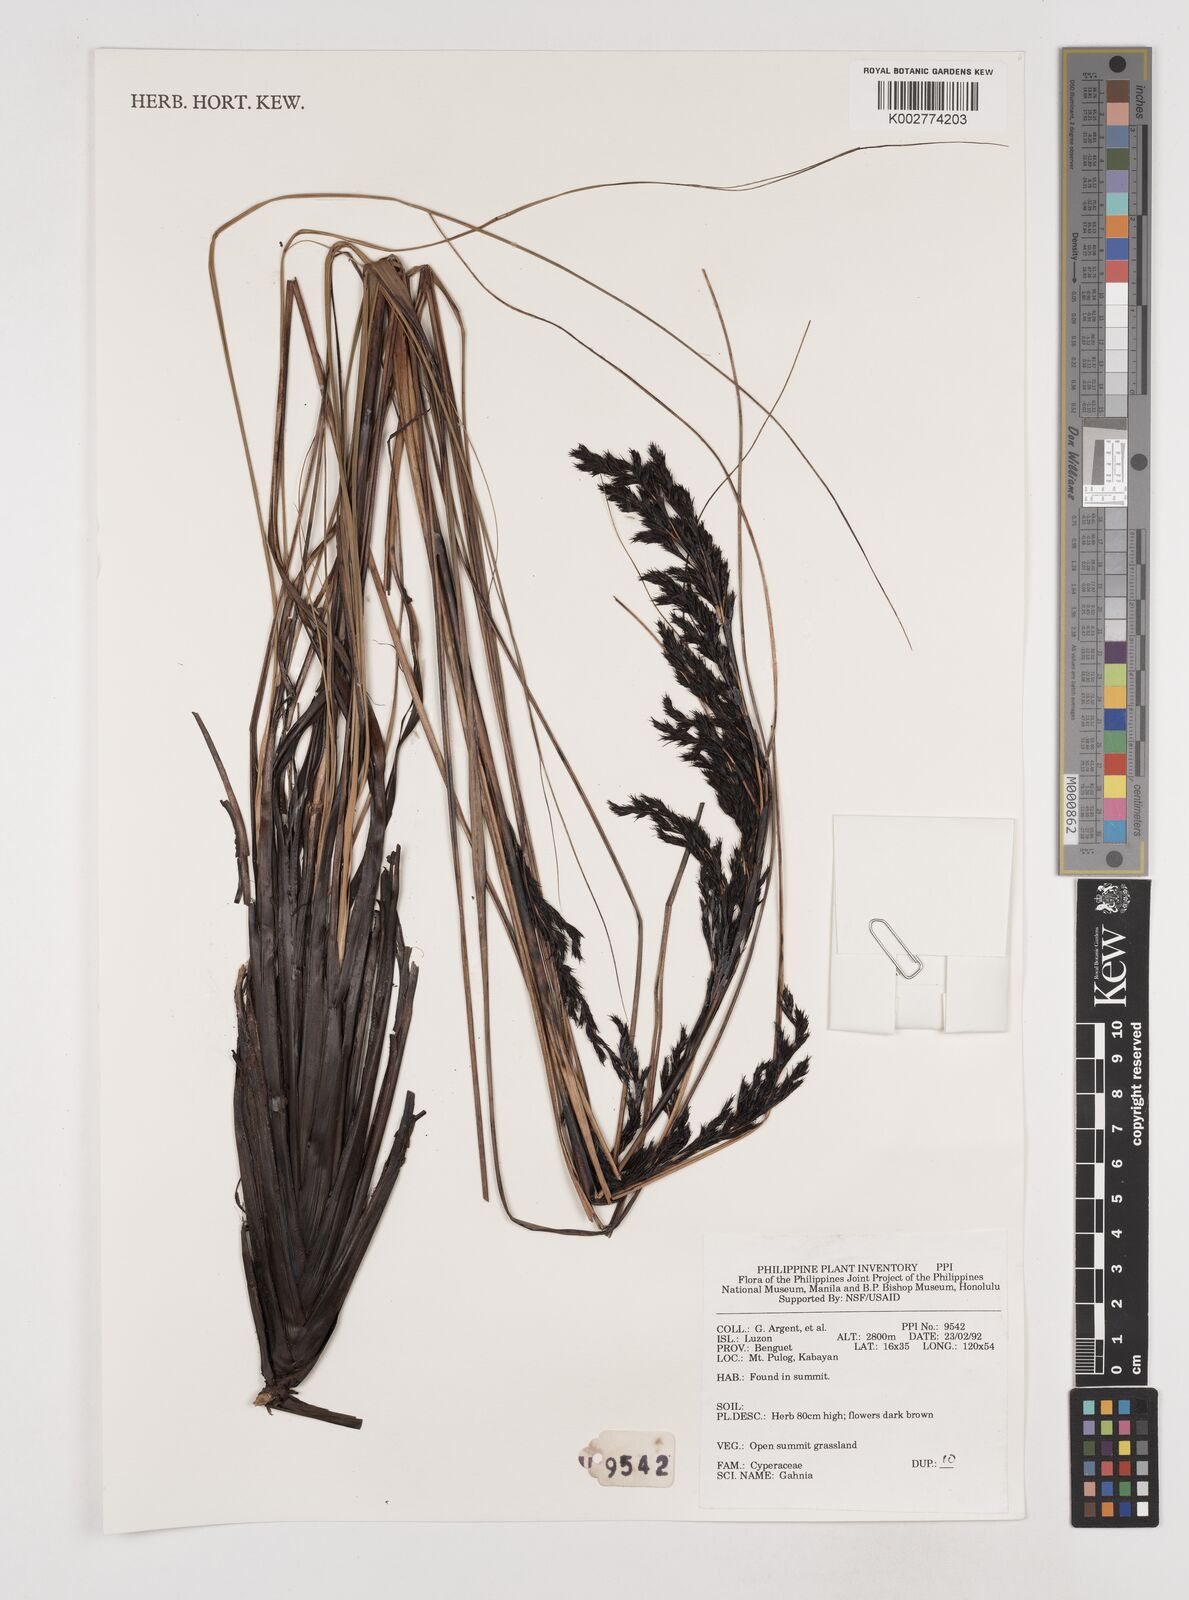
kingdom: Plantae
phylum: Tracheophyta
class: Liliopsida
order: Poales
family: Cyperaceae
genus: Gahnia
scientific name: Gahnia
